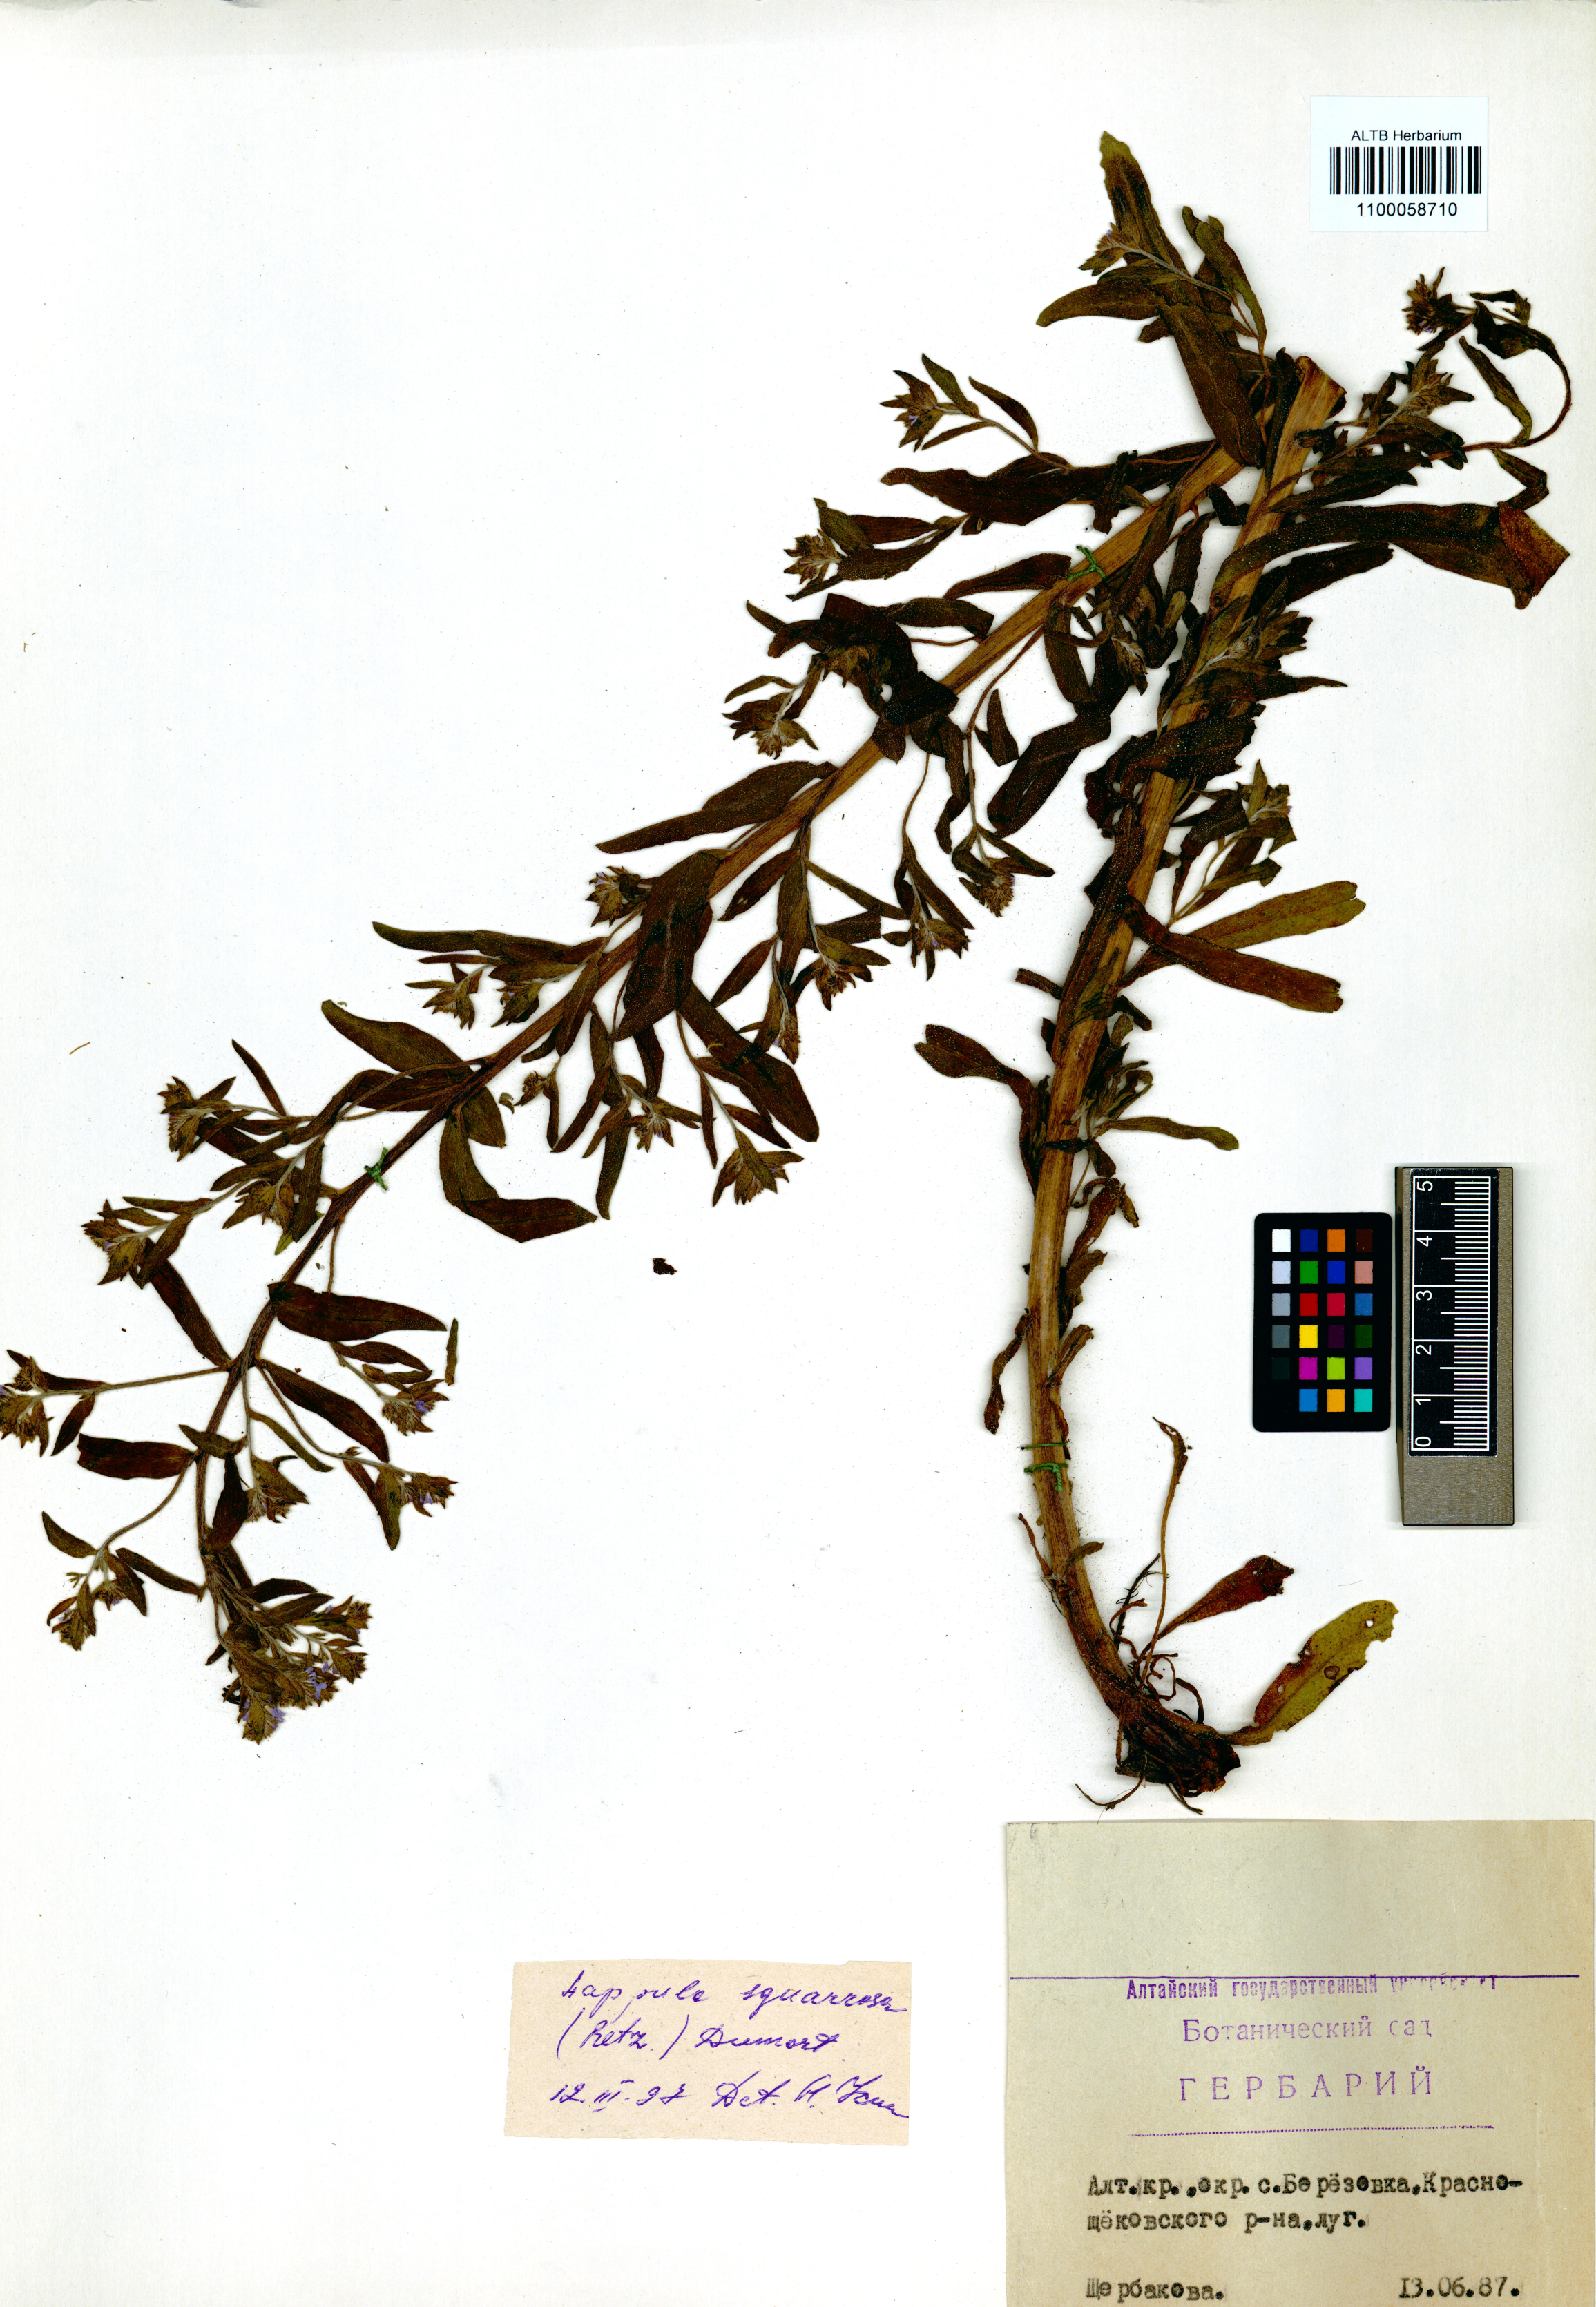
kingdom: Plantae
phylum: Tracheophyta
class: Magnoliopsida
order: Boraginales
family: Boraginaceae
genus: Lappula
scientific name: Lappula squarrosa
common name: European stickseed
